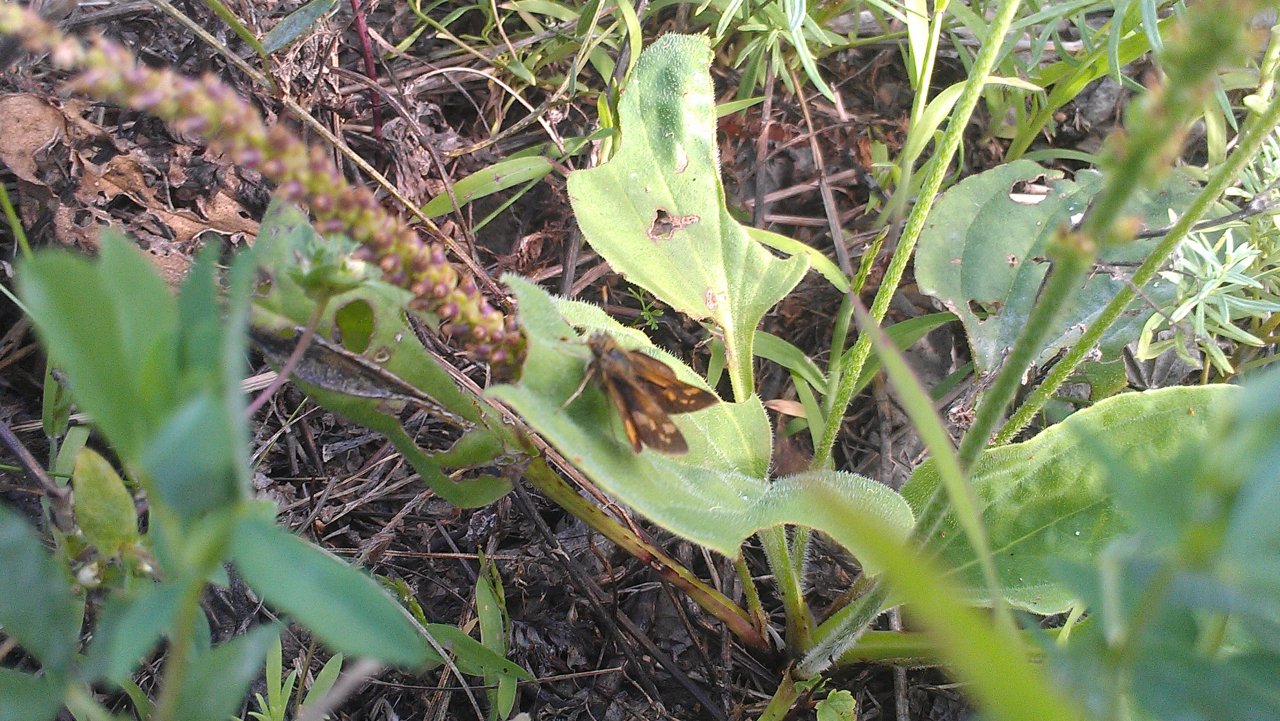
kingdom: Animalia
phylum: Arthropoda
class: Insecta
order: Lepidoptera
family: Hesperiidae
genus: Polites
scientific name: Polites coras
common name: Peck's Skipper
